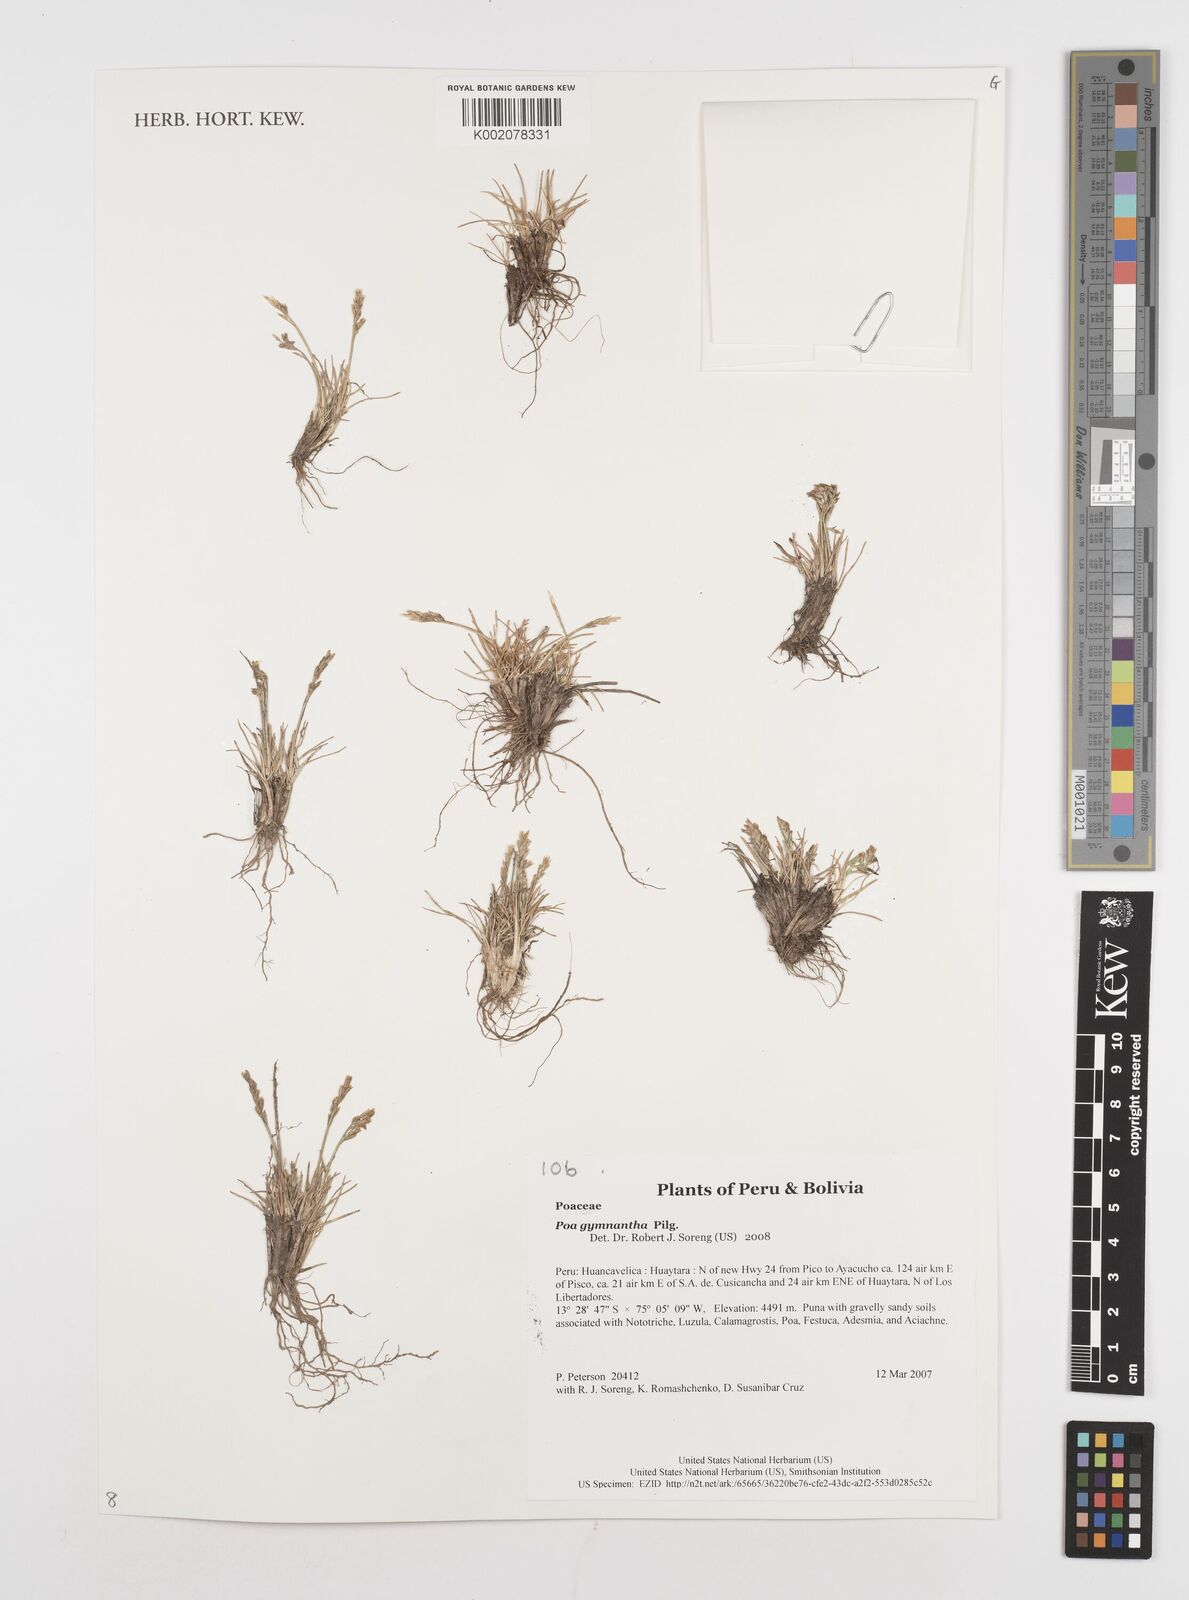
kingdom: Plantae
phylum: Tracheophyta
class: Liliopsida
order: Poales
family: Poaceae
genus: Poa
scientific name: Poa gymnantha
